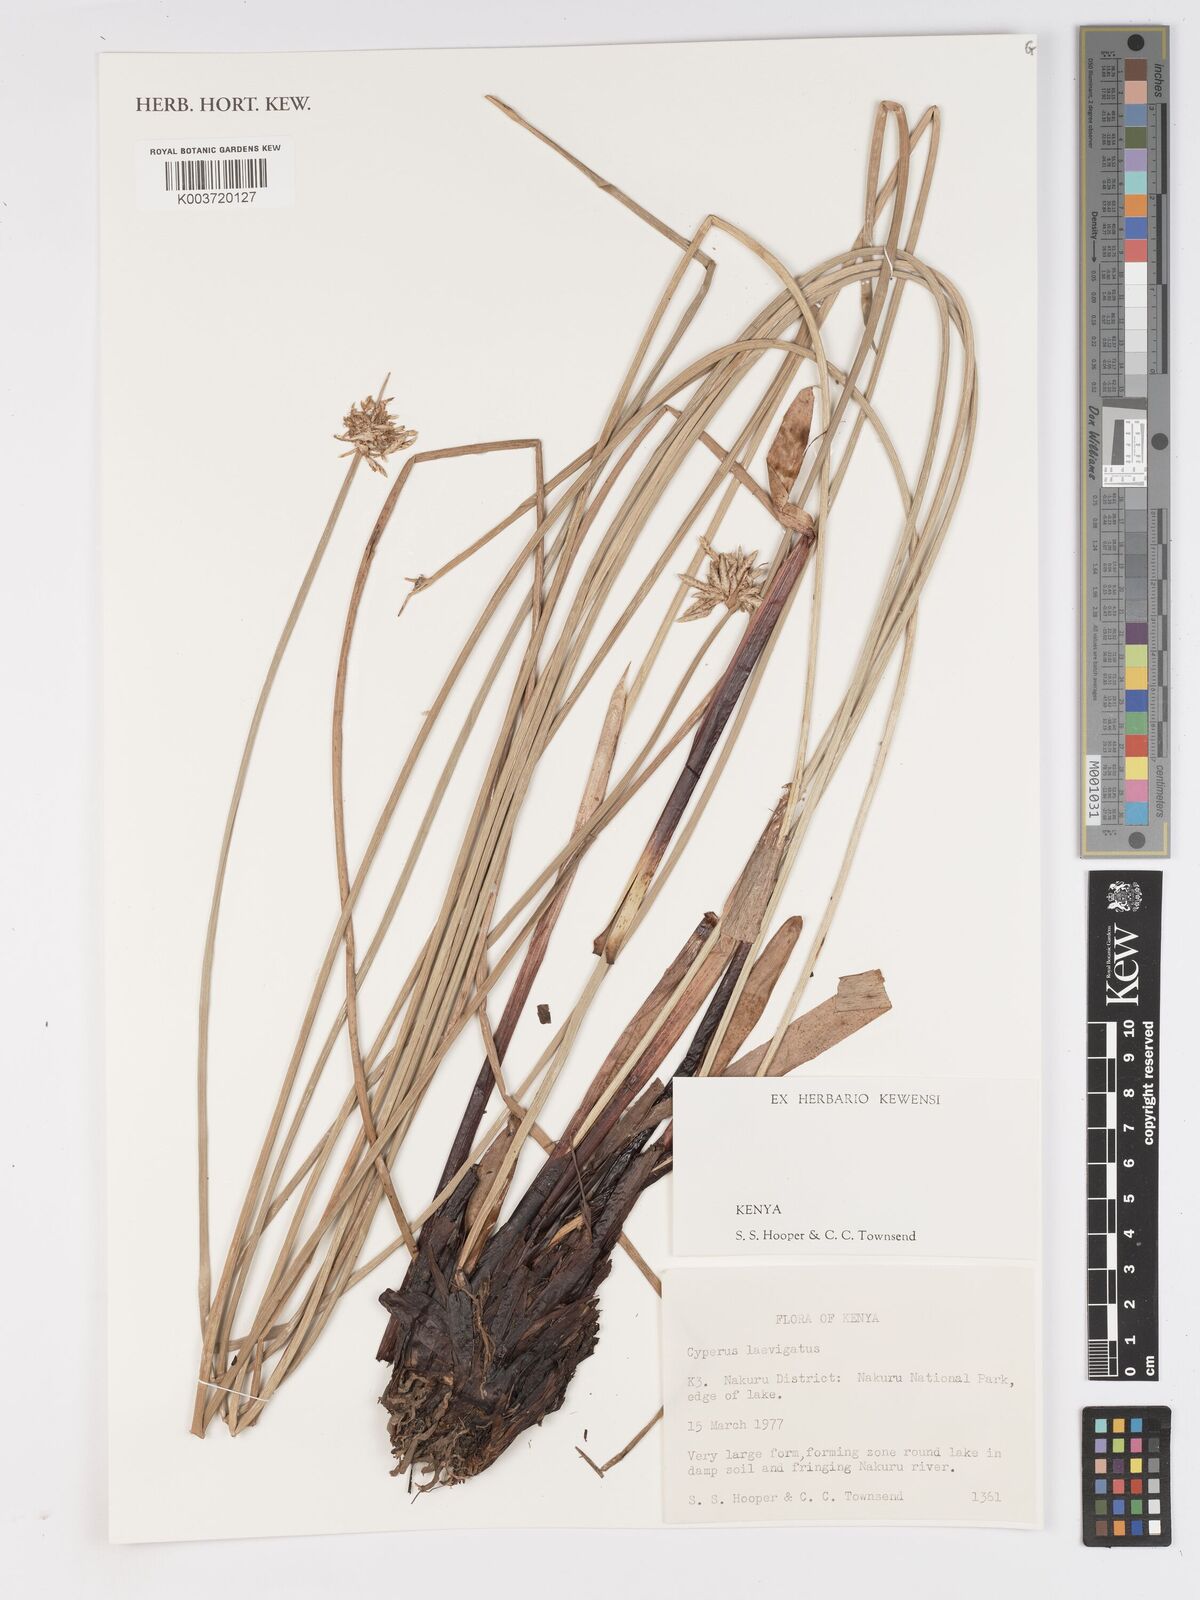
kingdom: Plantae
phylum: Tracheophyta
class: Liliopsida
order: Poales
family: Cyperaceae
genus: Cyperus
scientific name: Cyperus laevigatus
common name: Smooth flat sedge
